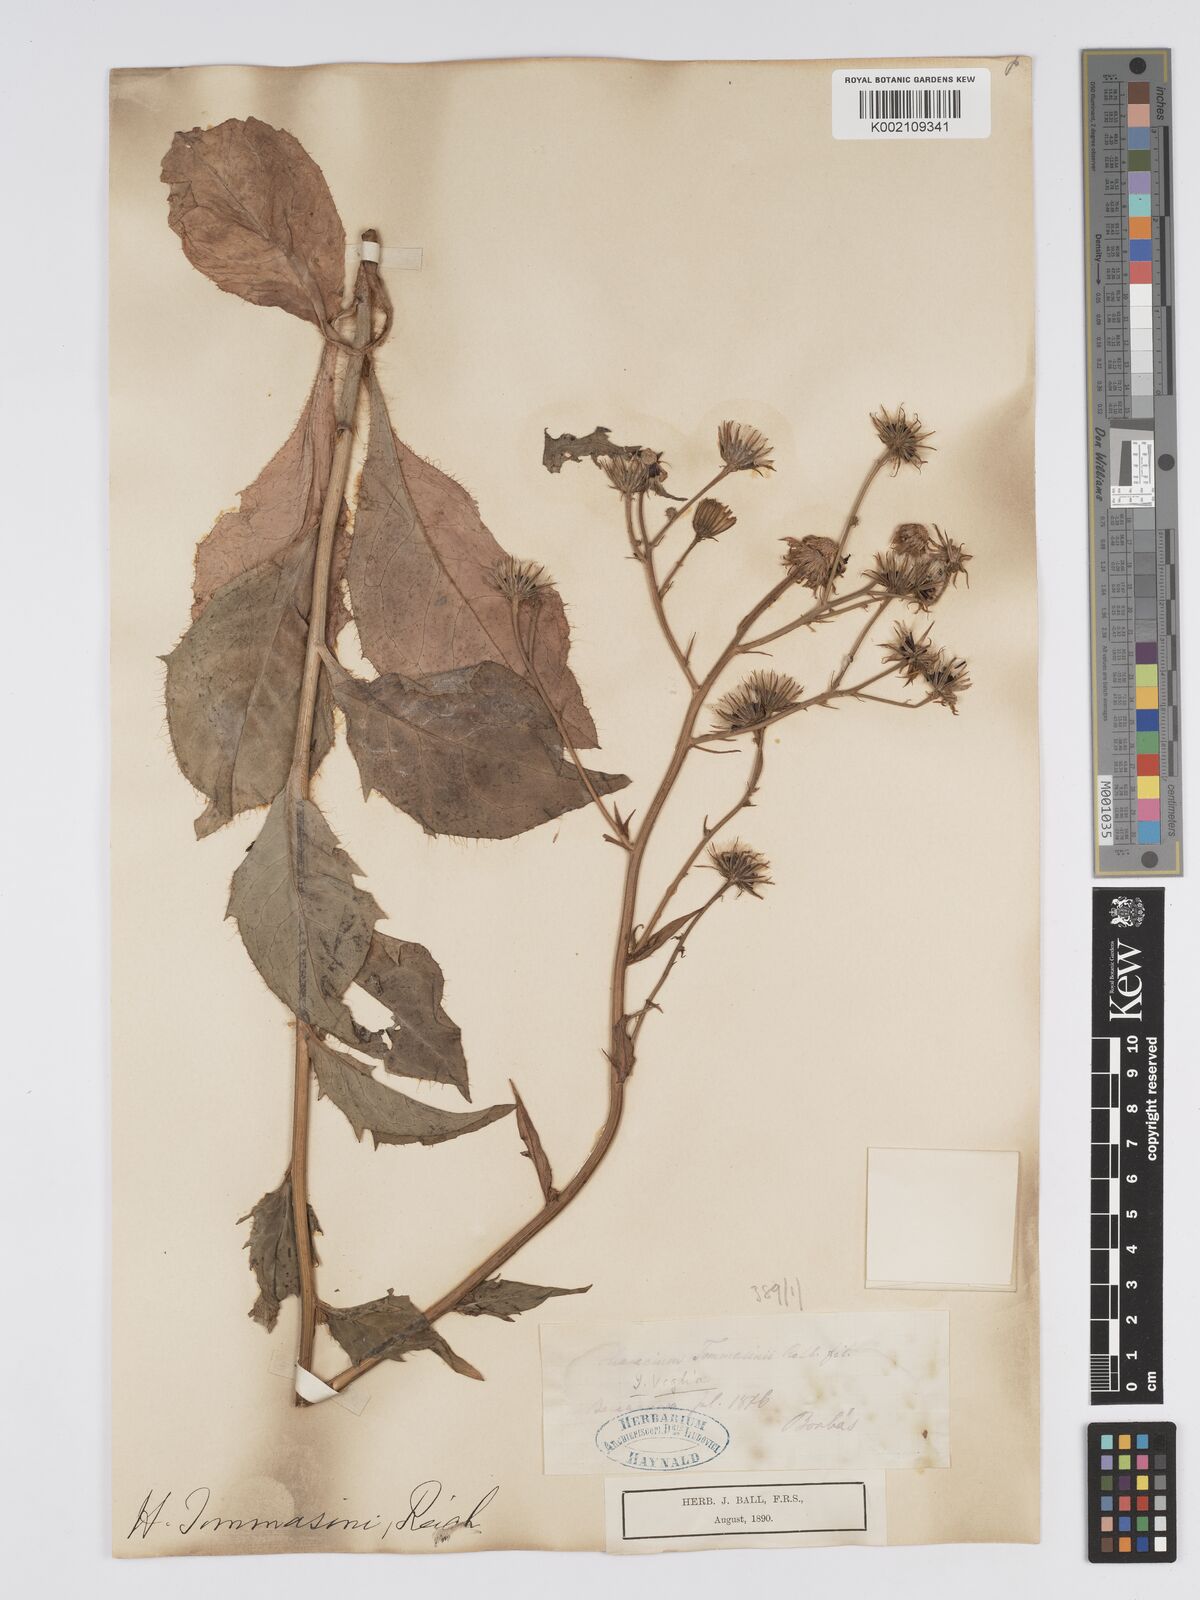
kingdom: Plantae
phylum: Tracheophyta
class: Magnoliopsida
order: Asterales
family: Asteraceae
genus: Hieracium
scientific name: Hieracium tommasinianum
